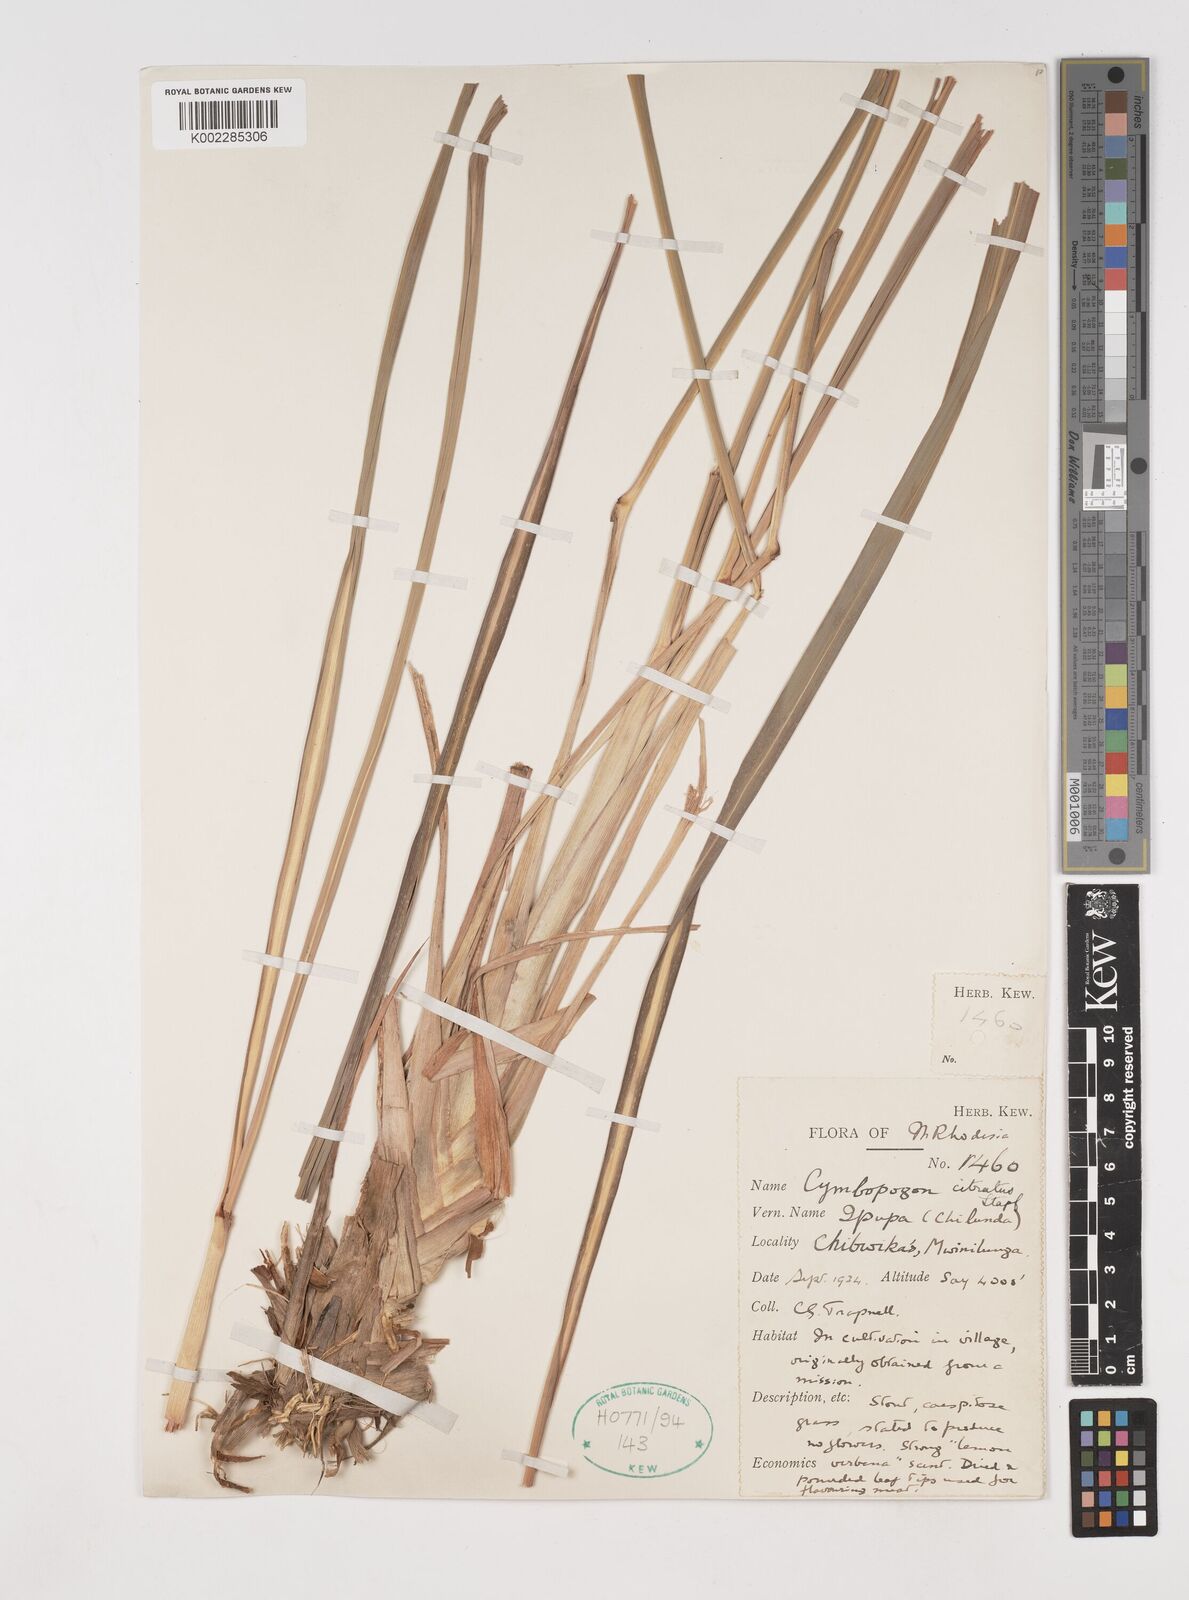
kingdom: Plantae
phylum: Tracheophyta
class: Liliopsida
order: Poales
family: Poaceae
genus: Cymbopogon
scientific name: Cymbopogon citratus
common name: Lemon grass
